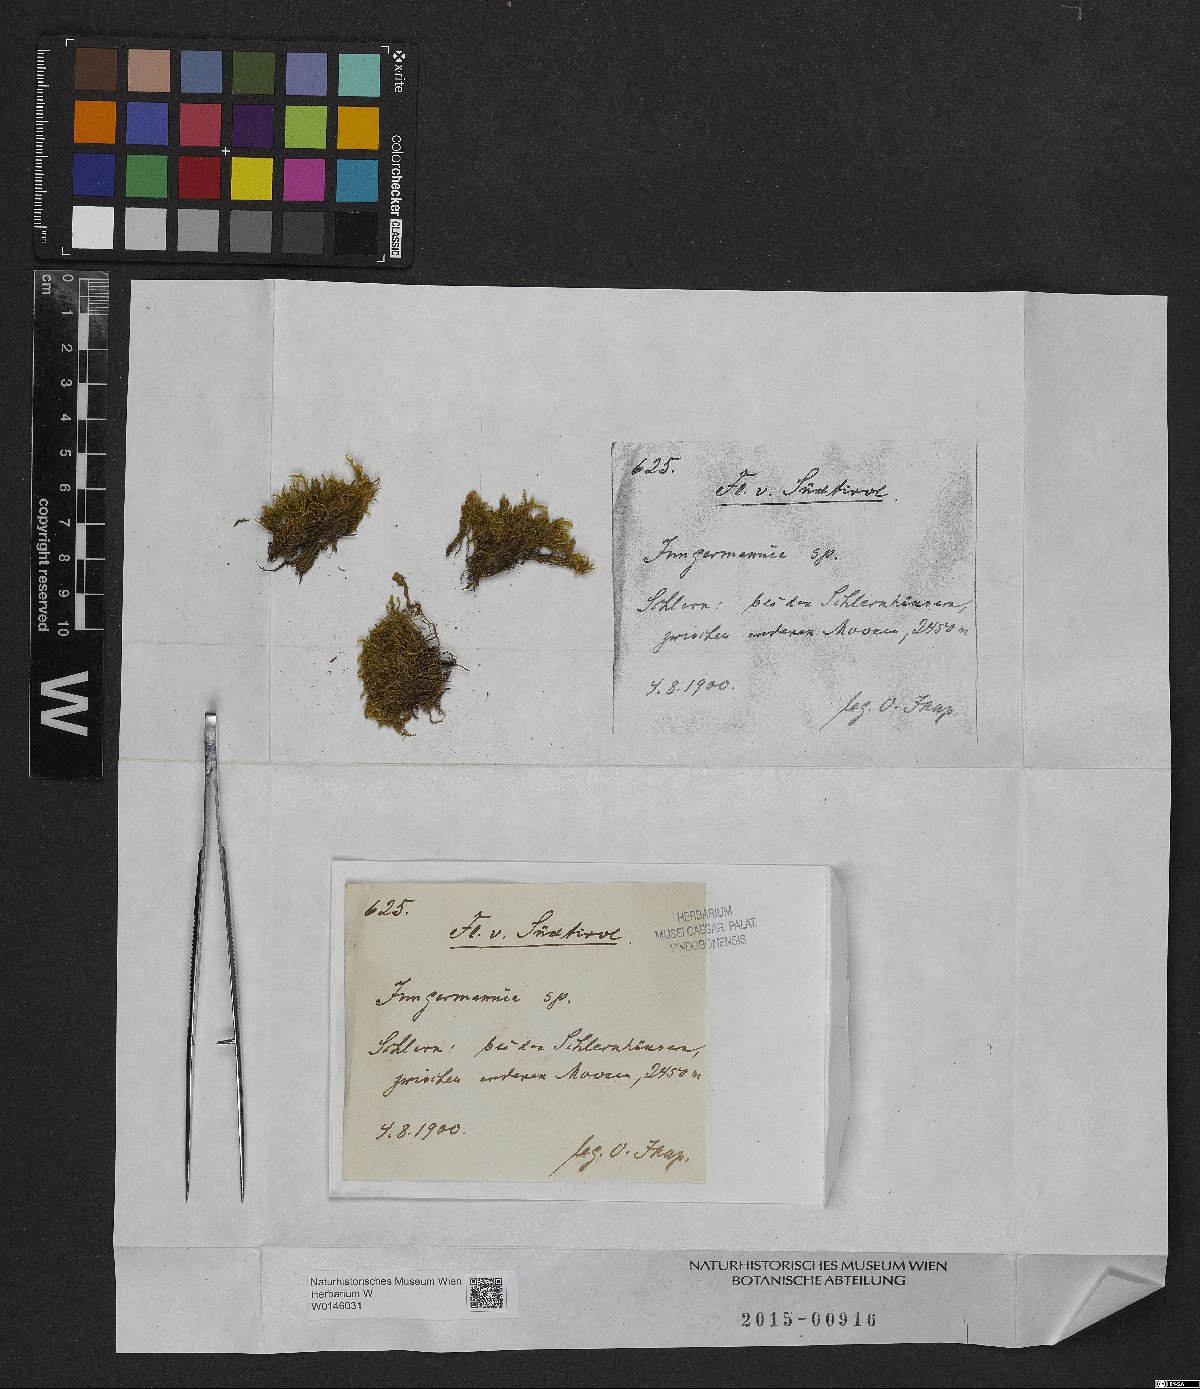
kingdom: Plantae
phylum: Marchantiophyta
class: Jungermanniopsida
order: Jungermanniales
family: Jungermanniaceae
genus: Jungermannia
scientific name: Jungermannia
